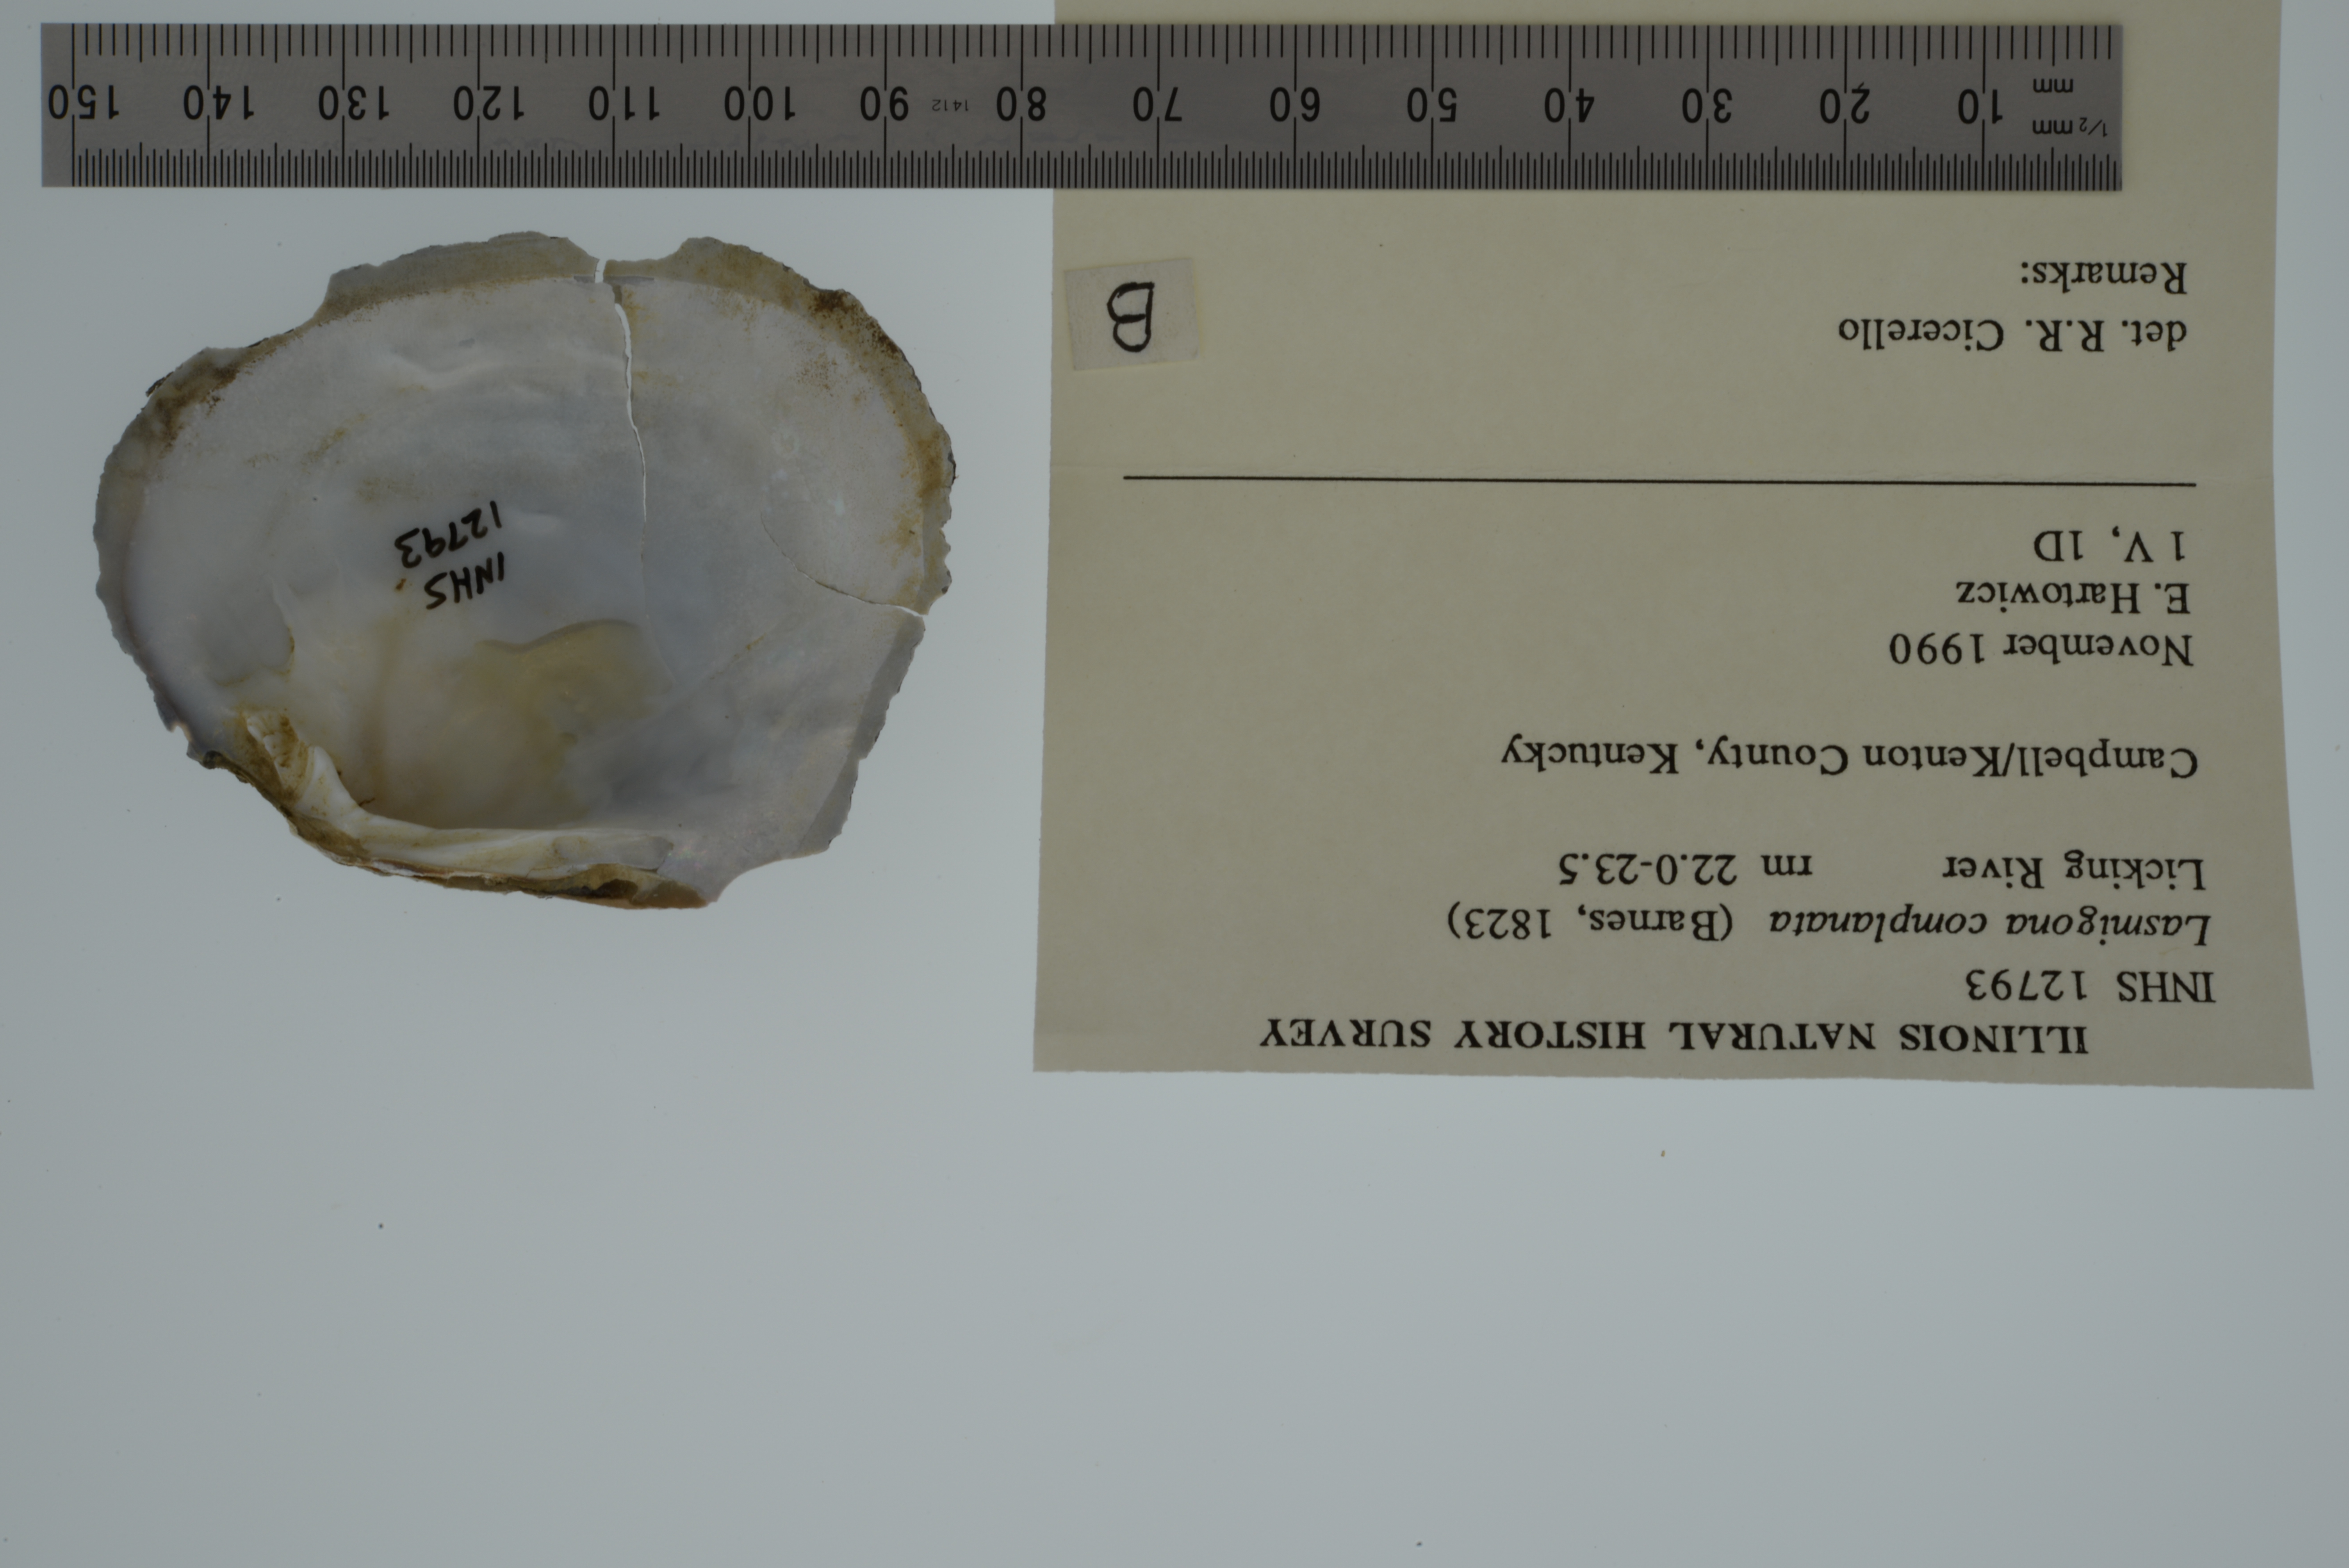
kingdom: Animalia
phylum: Mollusca
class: Bivalvia
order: Unionida
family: Unionidae
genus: Lasmigona
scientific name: Lasmigona complanata
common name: White heelsplitter
